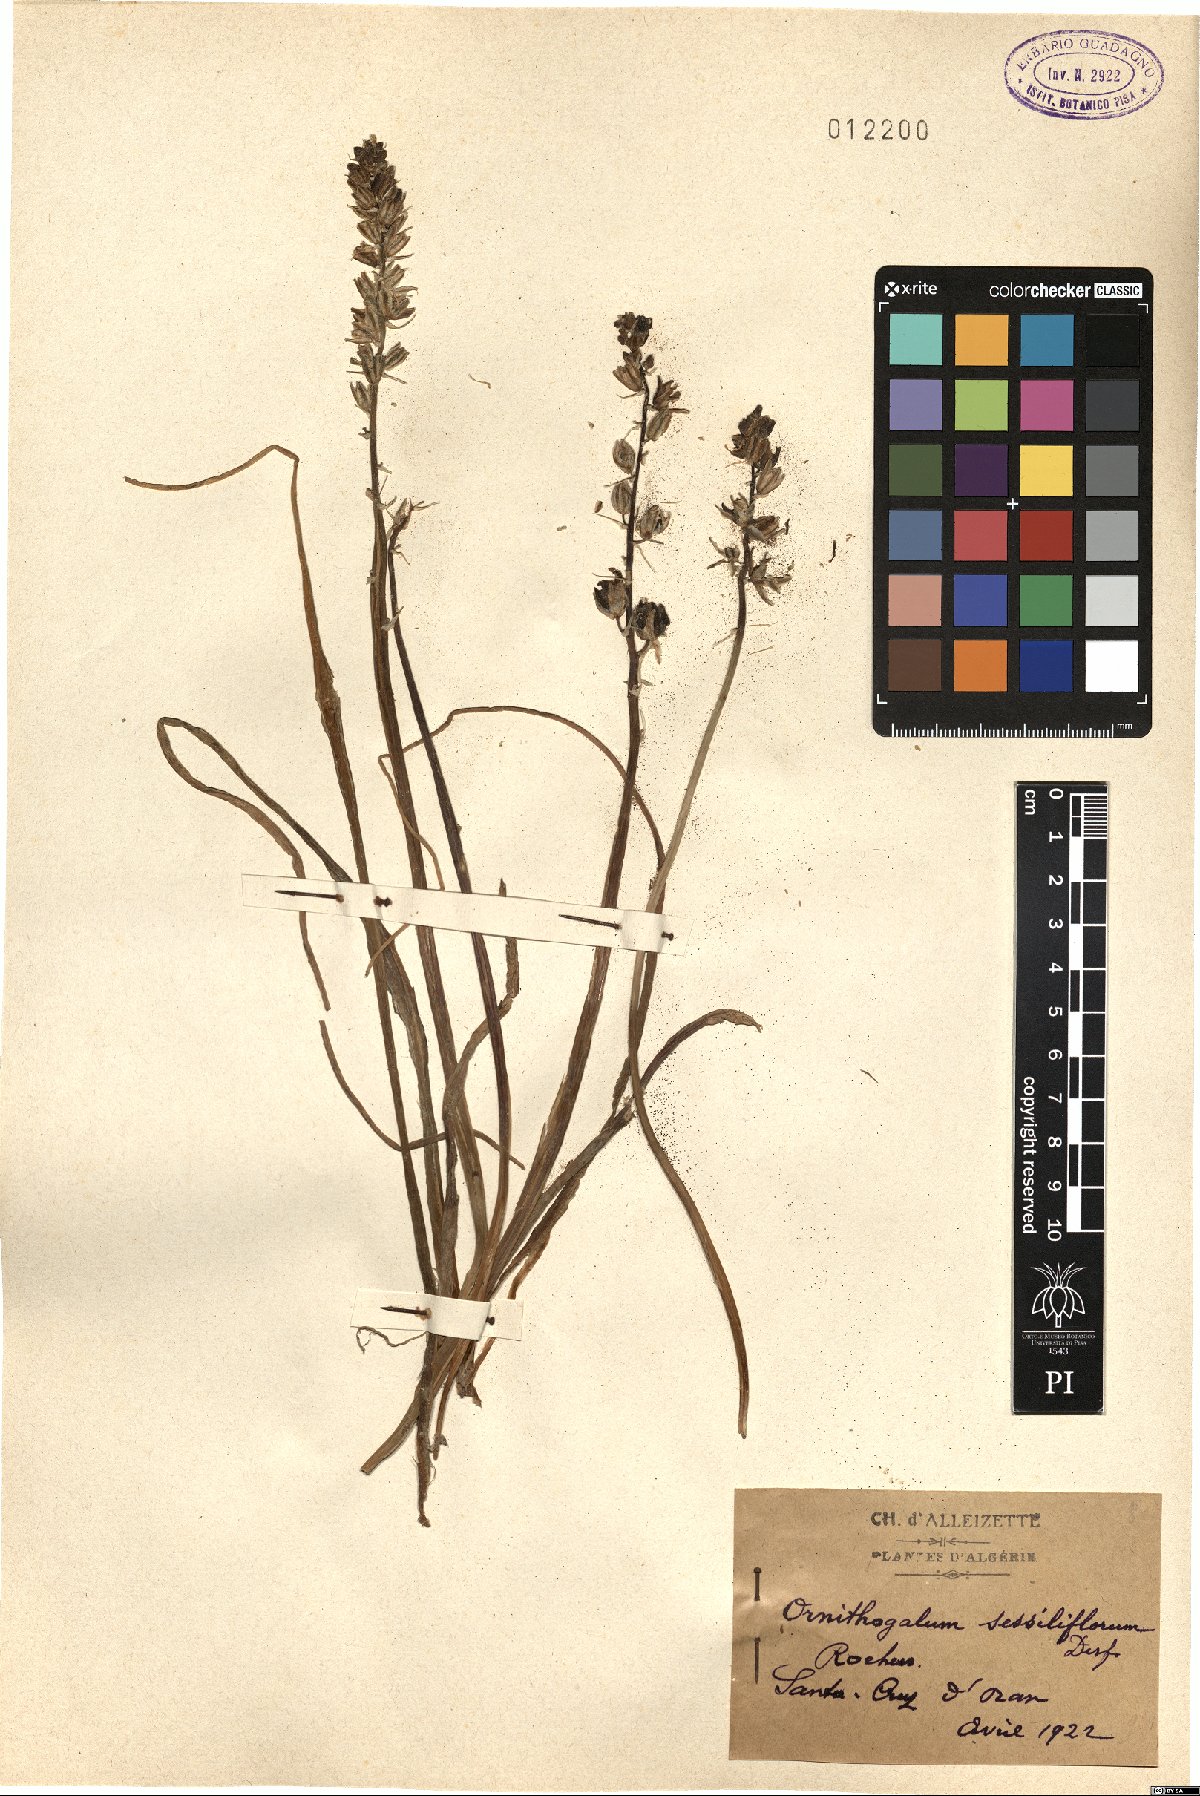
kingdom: Plantae
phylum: Tracheophyta
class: Liliopsida
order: Asparagales
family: Asparagaceae
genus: Ornithogalum
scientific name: Ornithogalum sessiliflorum
